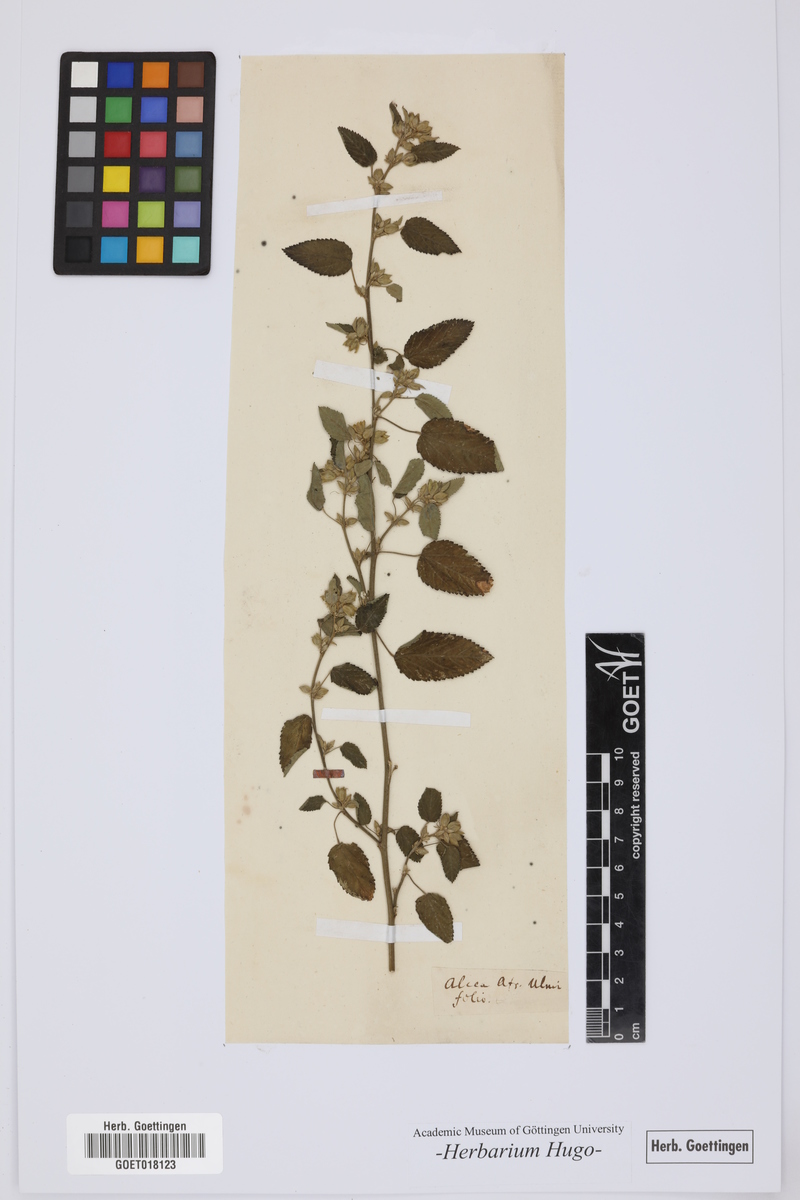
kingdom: Plantae
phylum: Tracheophyta
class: Magnoliopsida
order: Malvales
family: Malvaceae
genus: Alcea
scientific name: Alcea
